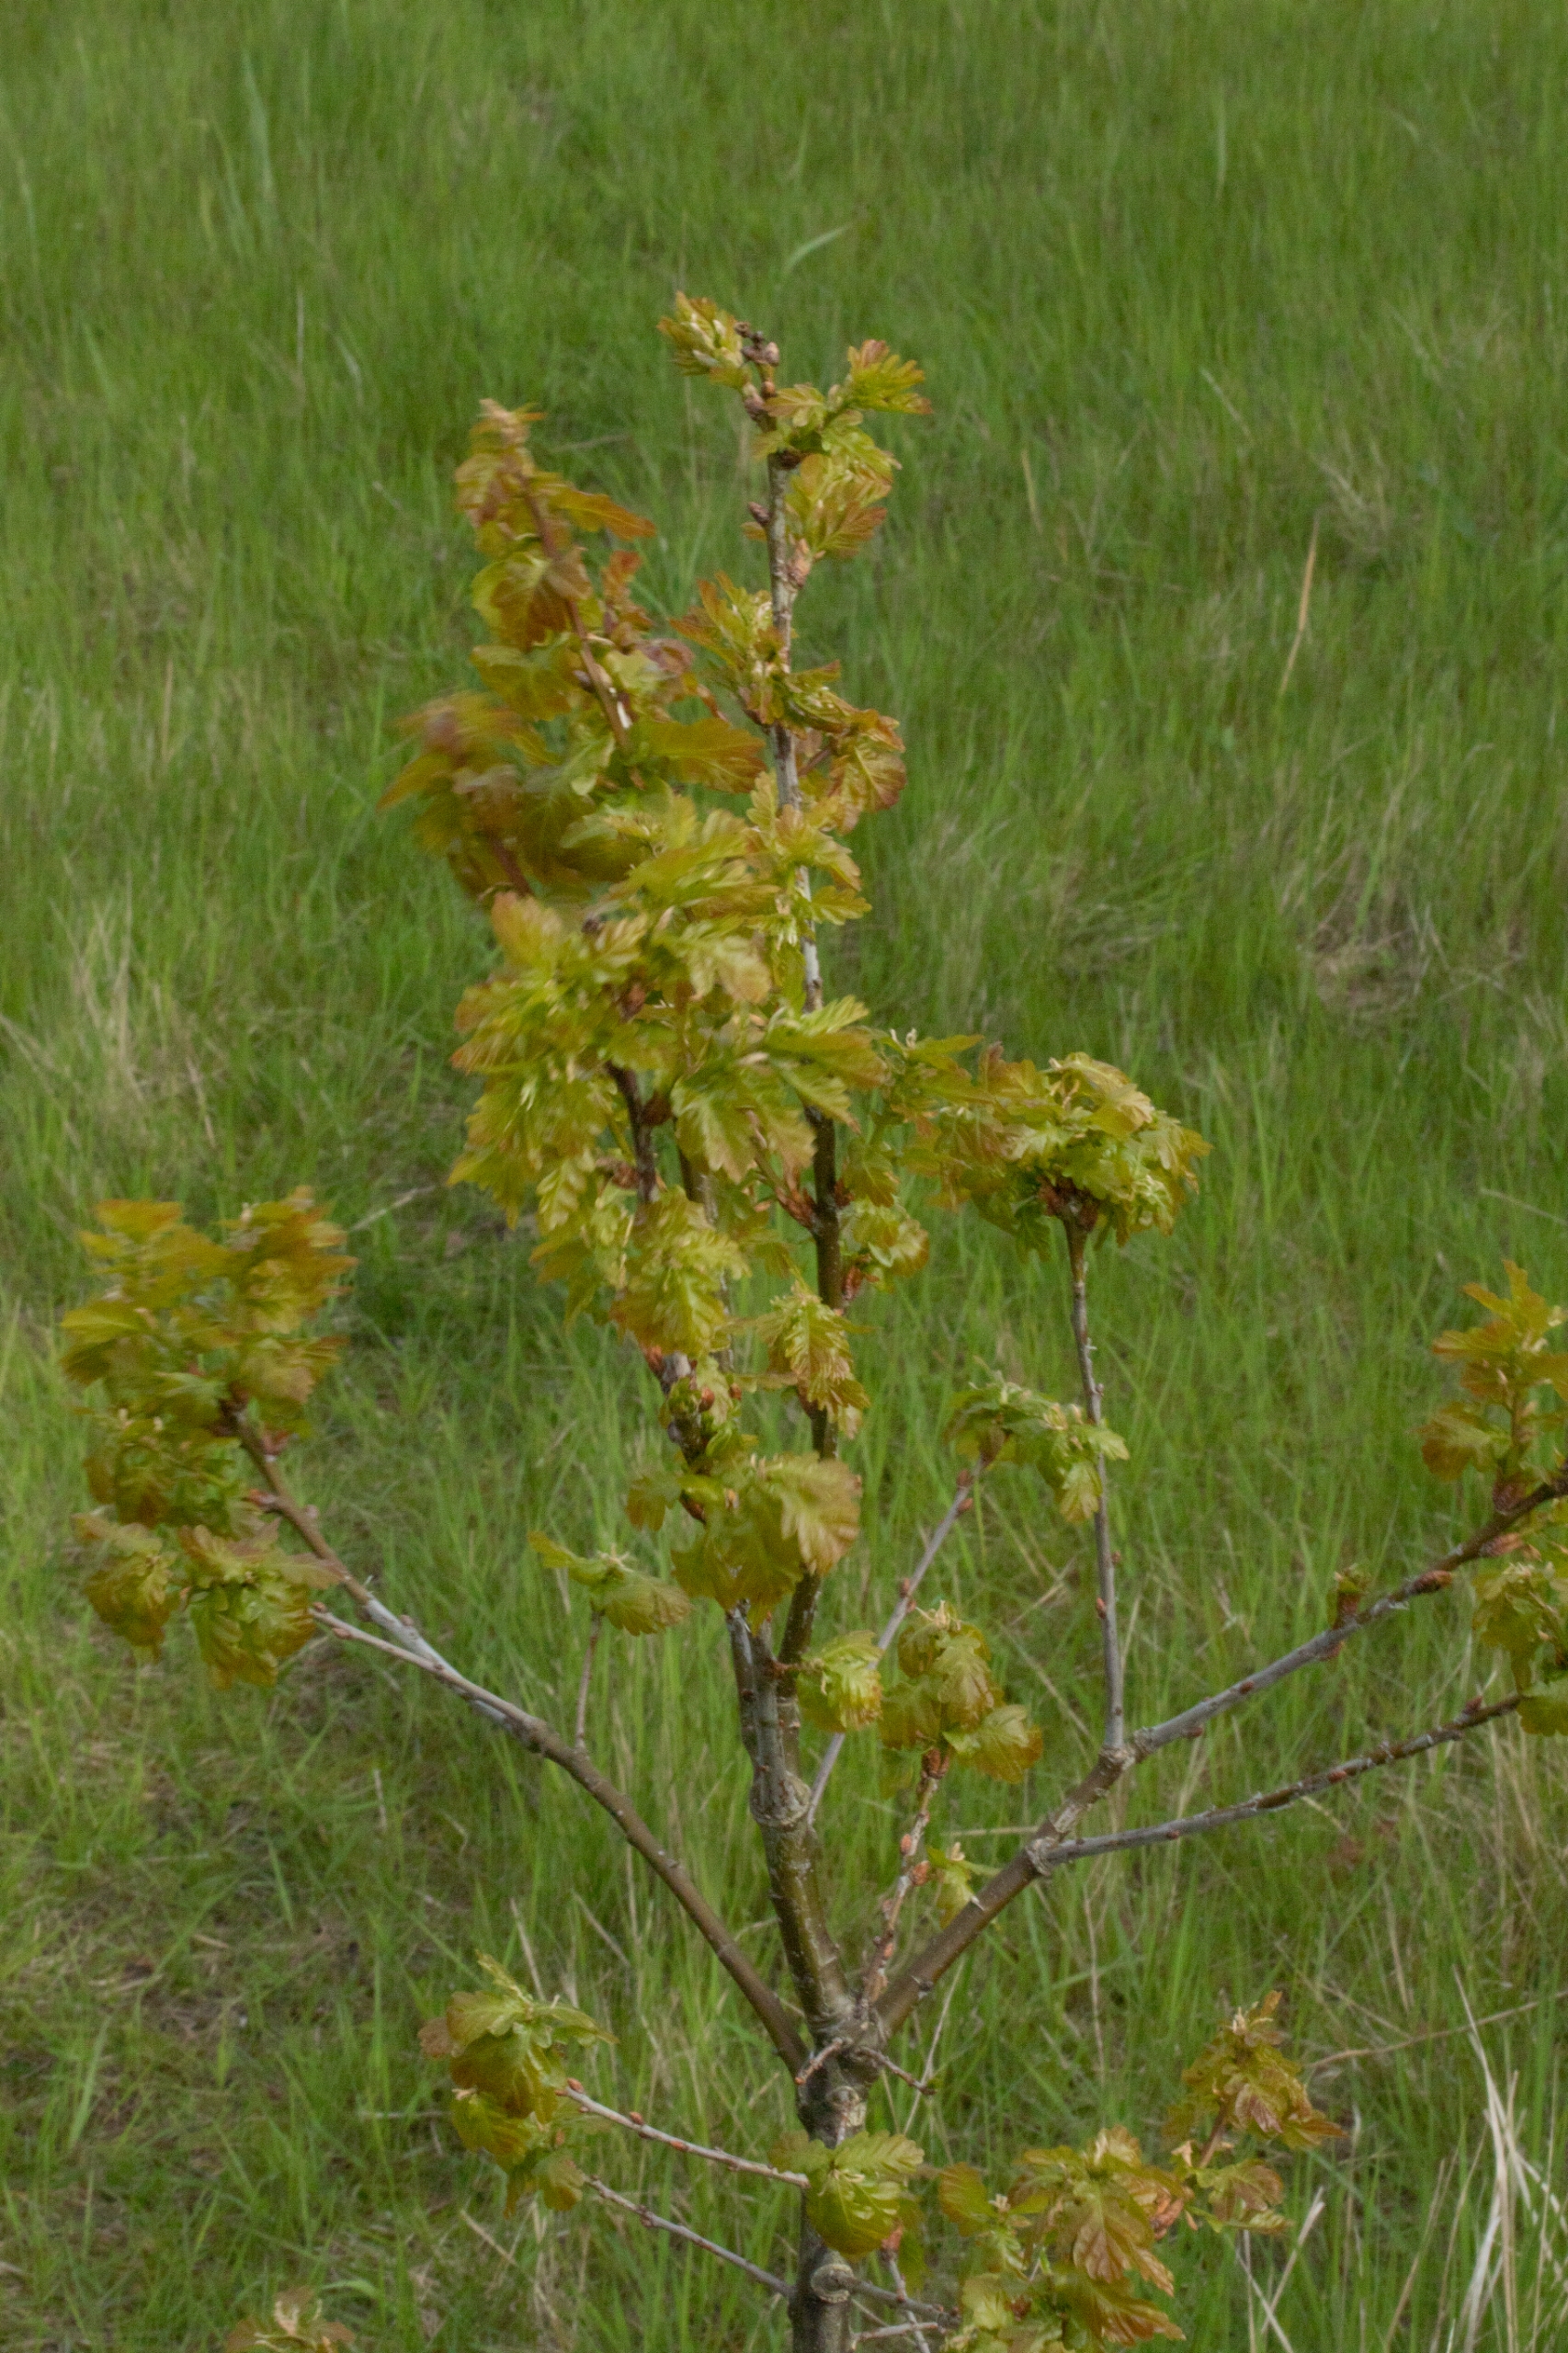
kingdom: Plantae
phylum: Tracheophyta
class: Magnoliopsida
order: Fagales
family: Fagaceae
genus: Quercus
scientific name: Quercus robur
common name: Stilk-eg/almindelig eg
